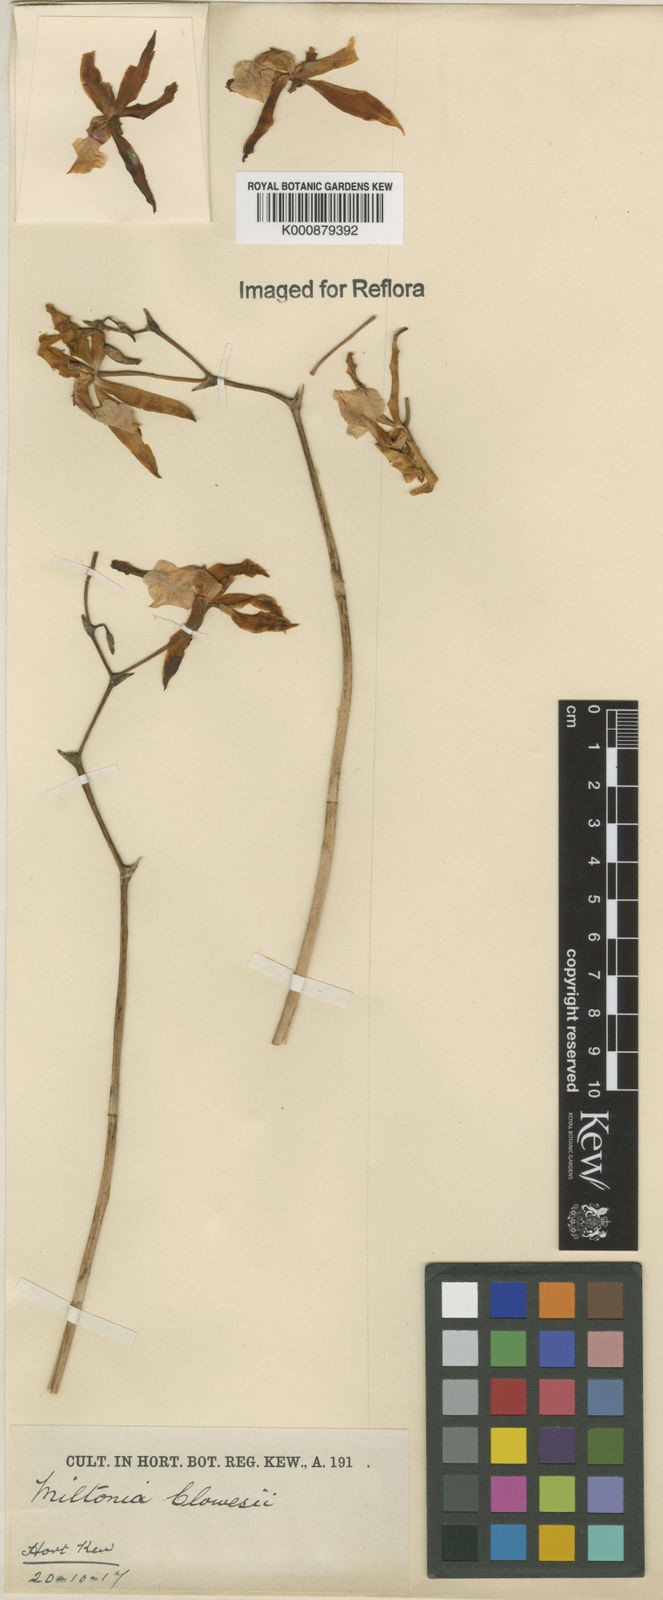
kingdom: Plantae
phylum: Tracheophyta
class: Liliopsida
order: Asparagales
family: Orchidaceae
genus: Miltonia
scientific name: Miltonia clowesii
